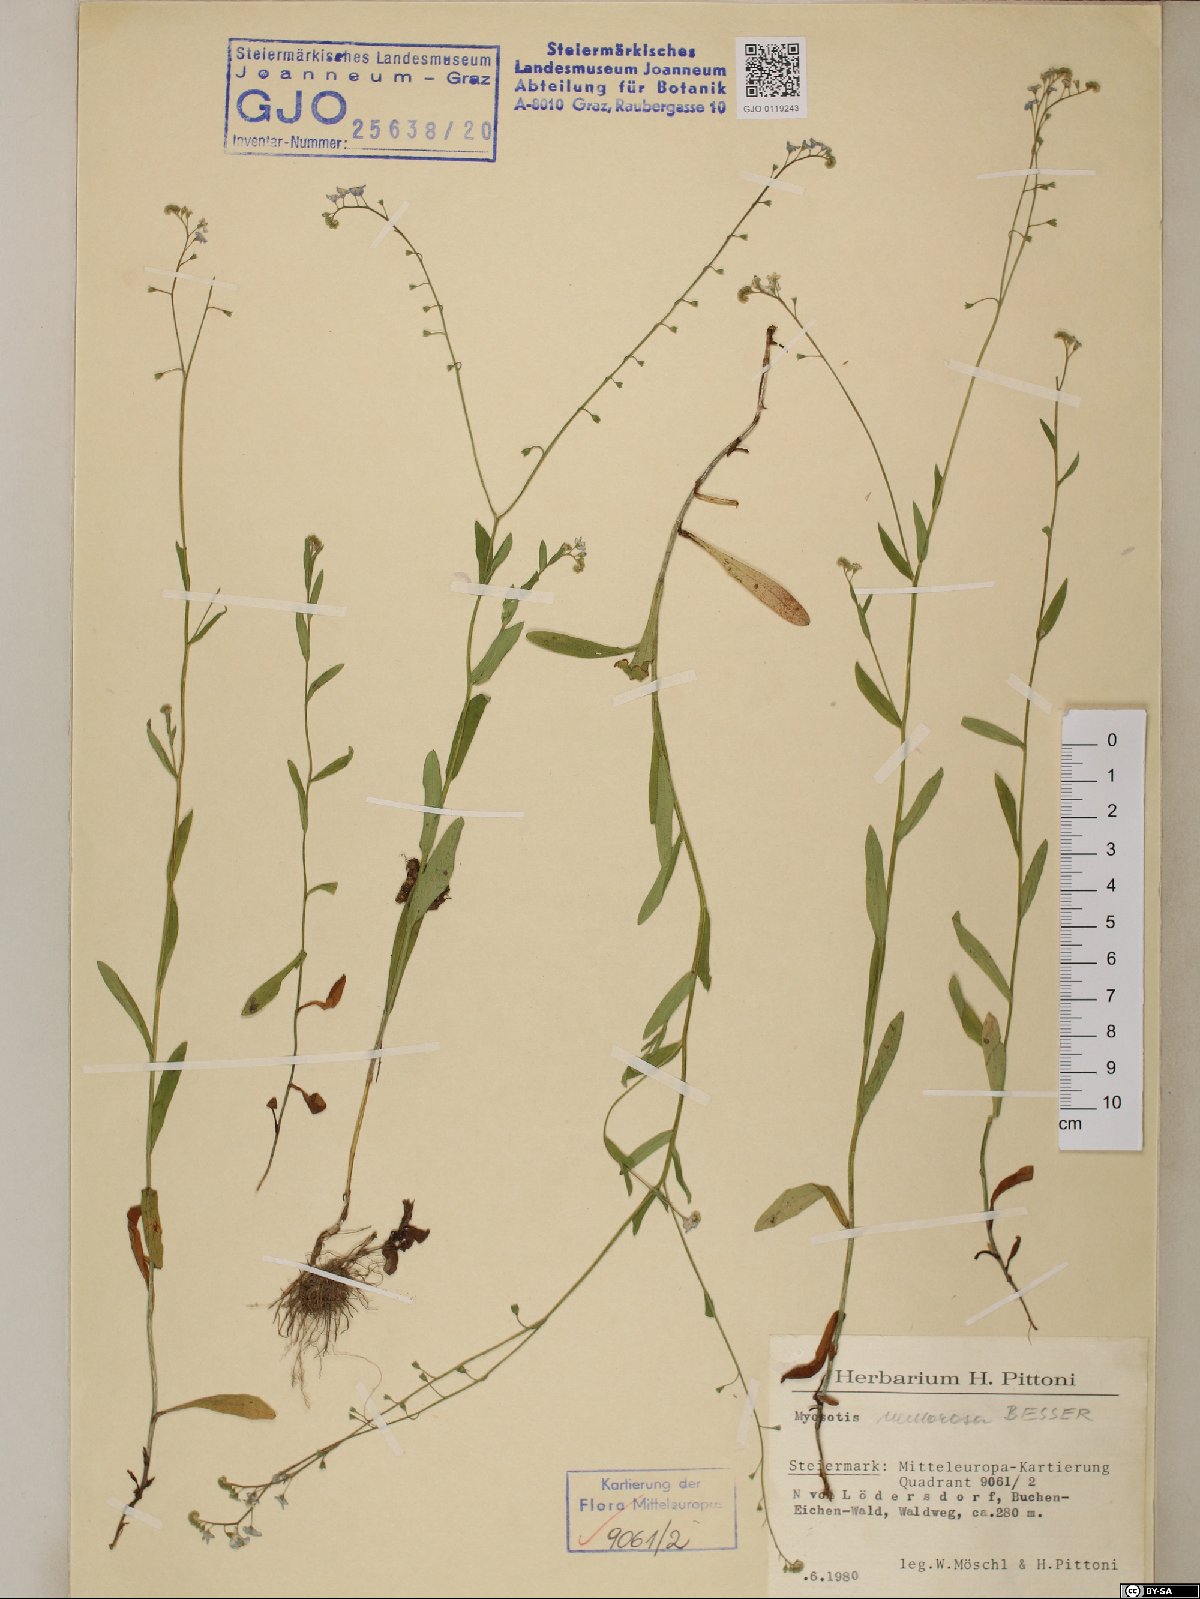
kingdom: Plantae
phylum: Tracheophyta
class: Magnoliopsida
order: Boraginales
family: Boraginaceae
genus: Myosotis
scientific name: Myosotis nemorosa
